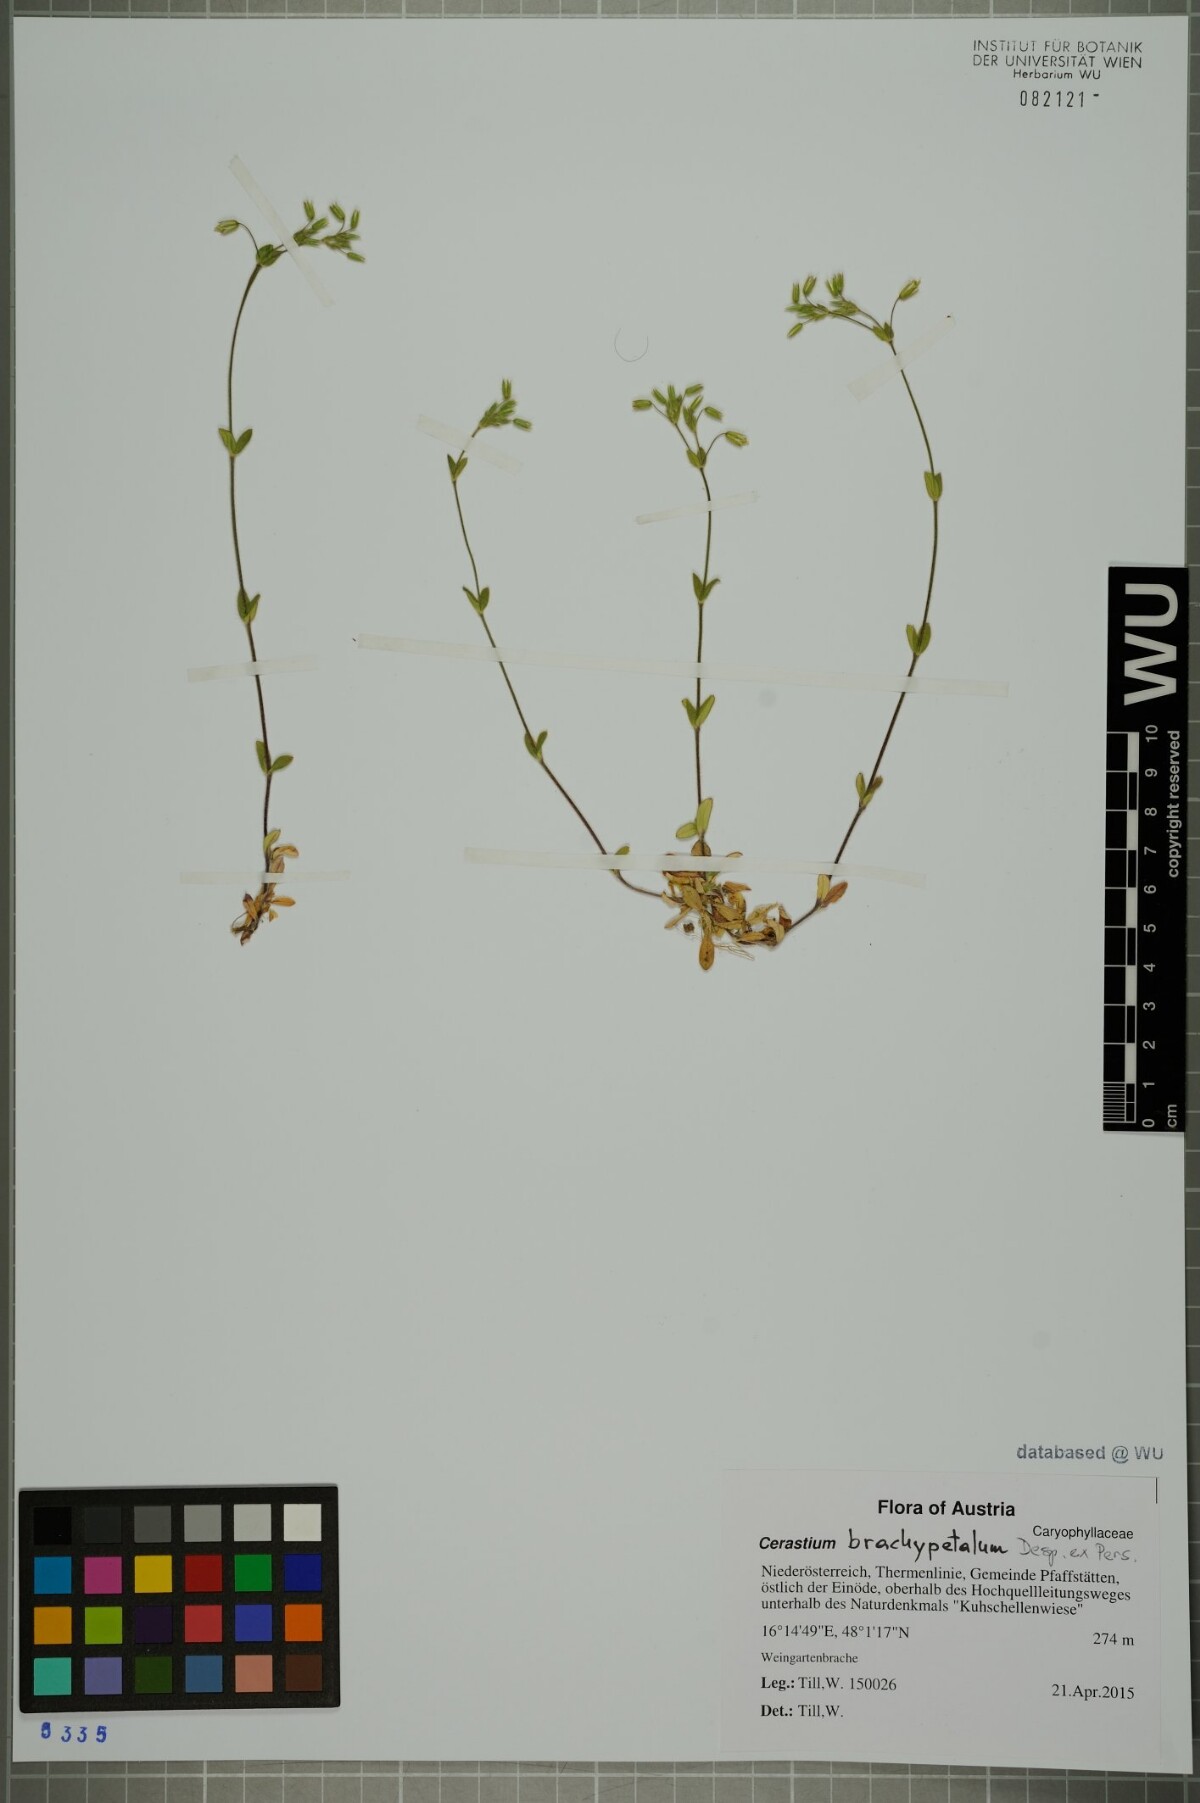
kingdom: Plantae
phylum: Tracheophyta
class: Magnoliopsida
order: Caryophyllales
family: Caryophyllaceae
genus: Cerastium
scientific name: Cerastium brachypetalum
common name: Grey mouse-ear
